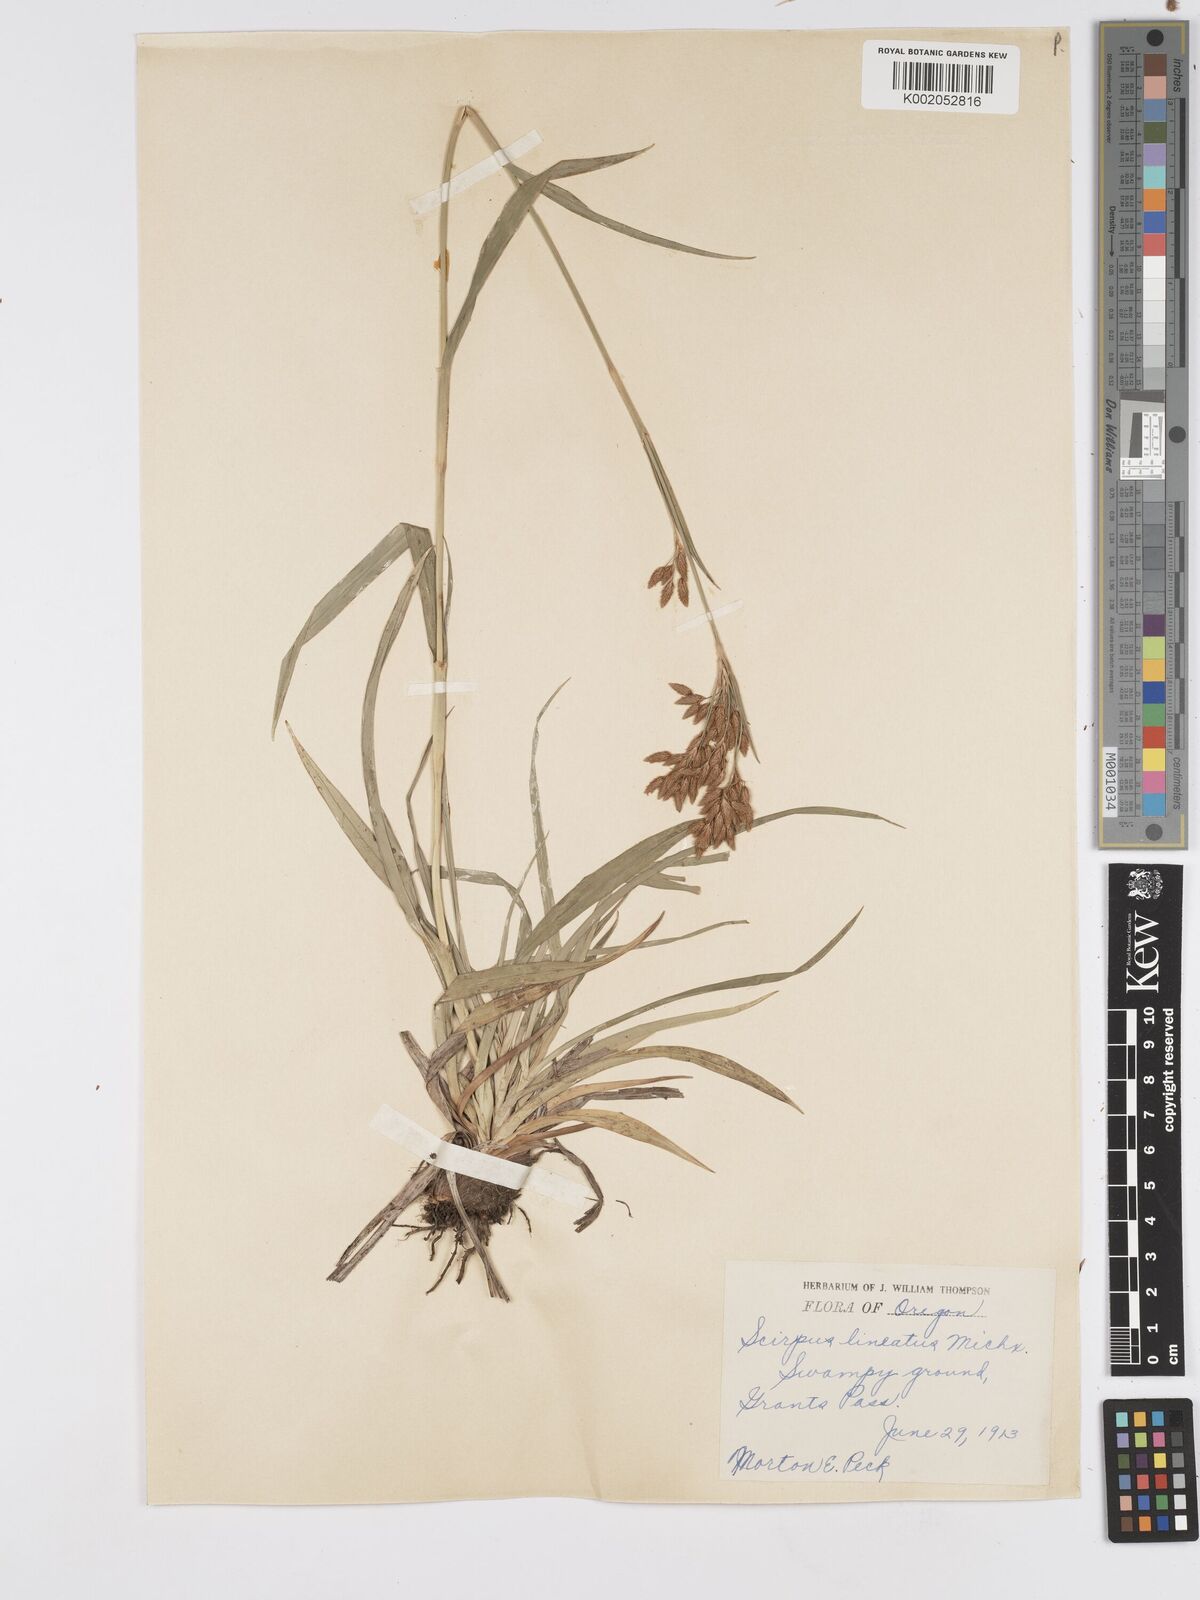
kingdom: Plantae
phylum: Tracheophyta
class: Liliopsida
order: Poales
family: Cyperaceae
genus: Scirpus
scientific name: Scirpus lineatus
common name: Drooping bulrush
